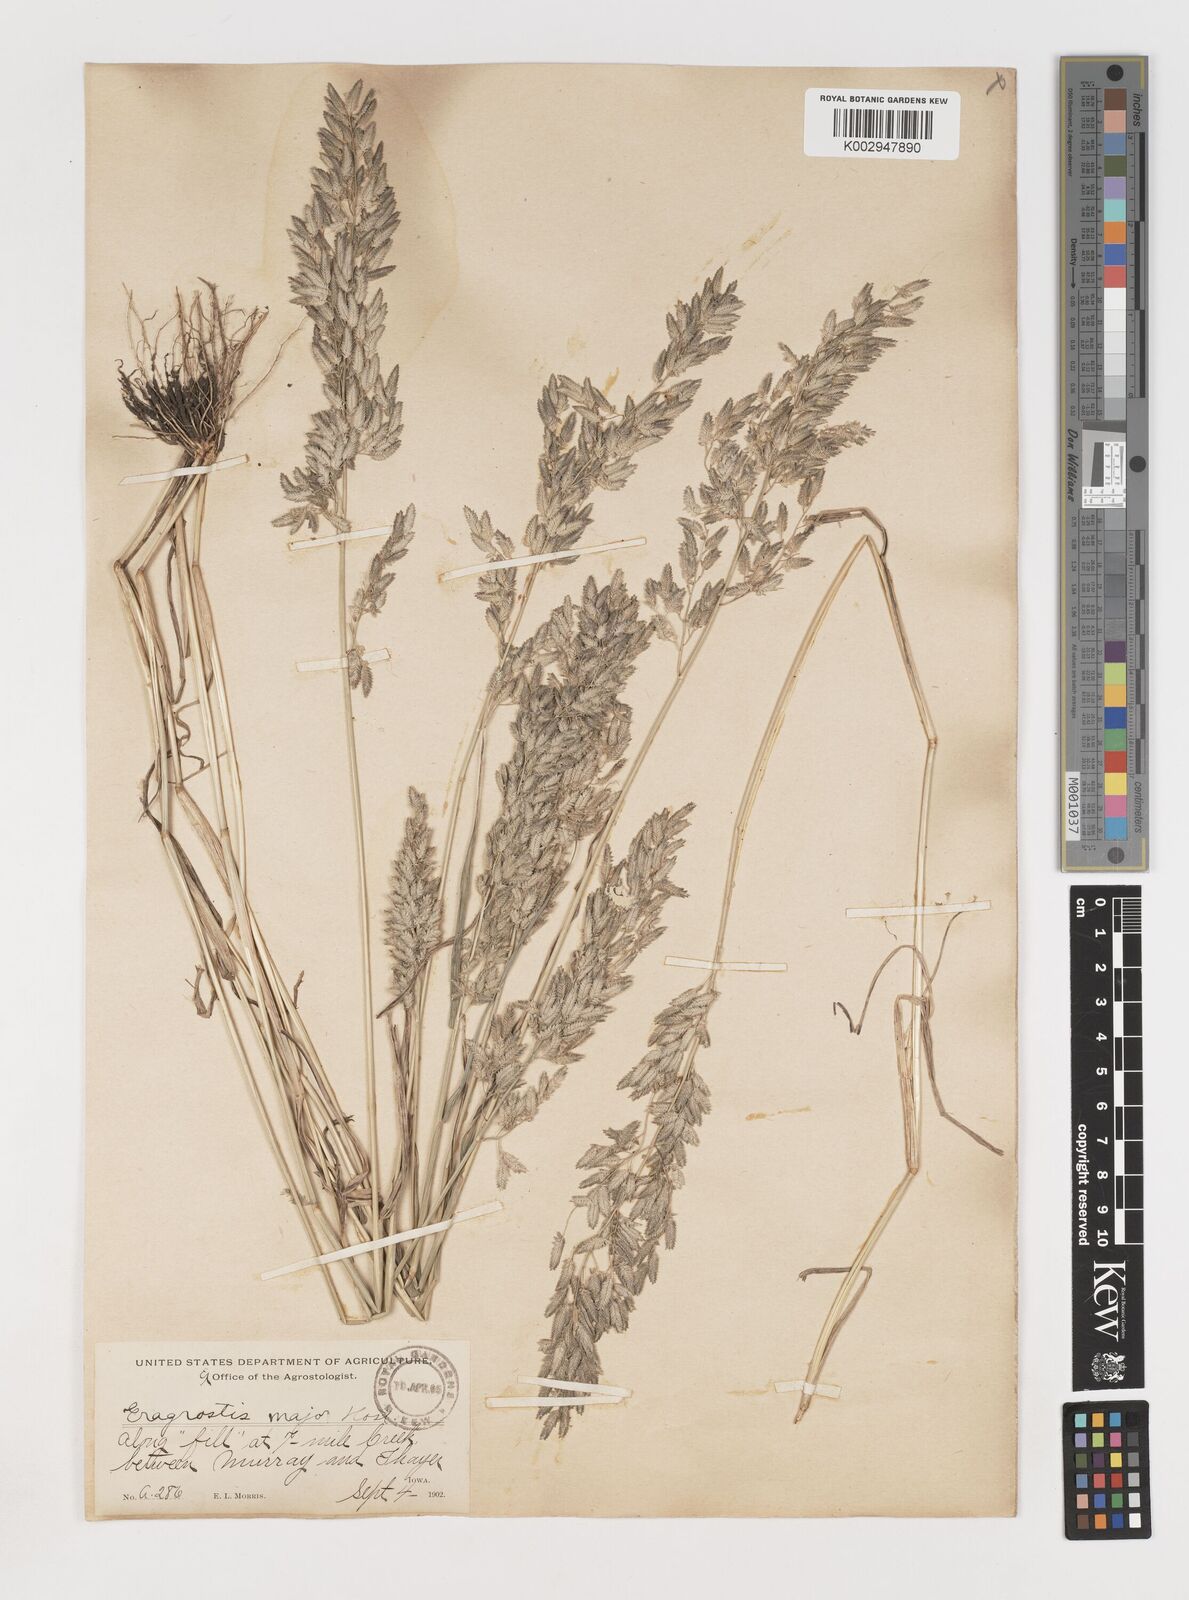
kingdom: Plantae
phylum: Tracheophyta
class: Liliopsida
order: Poales
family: Poaceae
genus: Eragrostis
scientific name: Eragrostis cilianensis
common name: Stinkgrass
